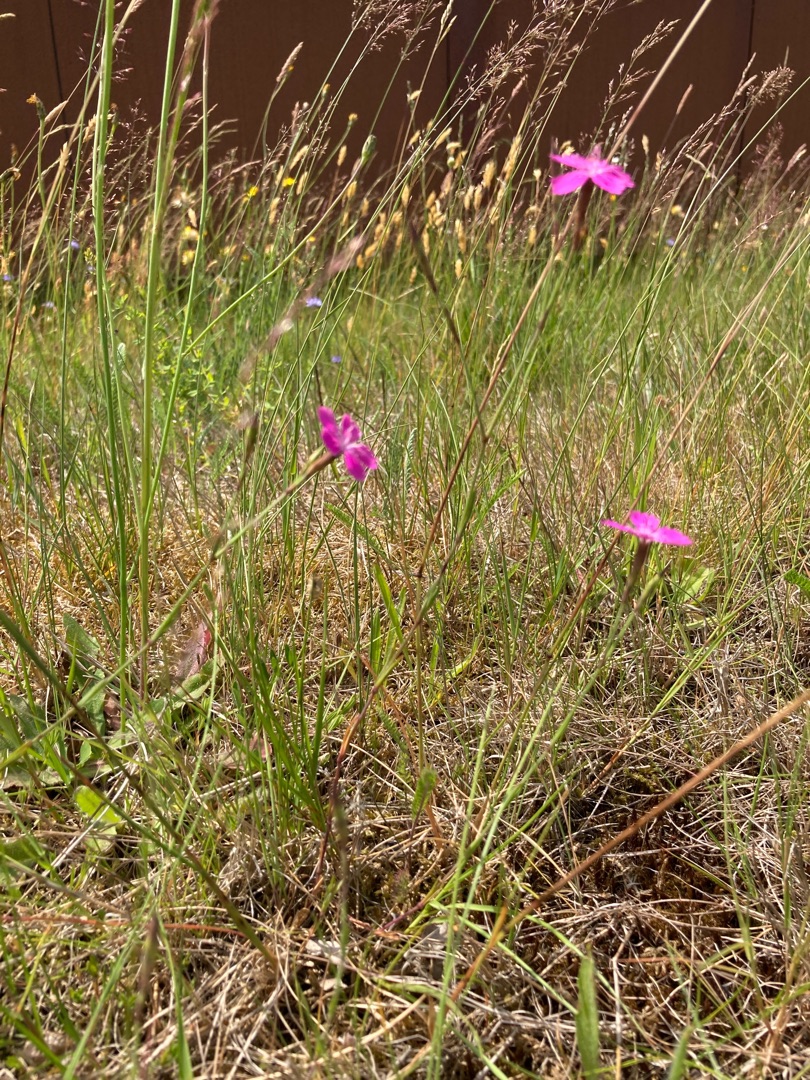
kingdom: Plantae
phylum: Tracheophyta
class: Magnoliopsida
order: Caryophyllales
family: Caryophyllaceae
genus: Dianthus
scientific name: Dianthus deltoides
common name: Bakke-nellike
